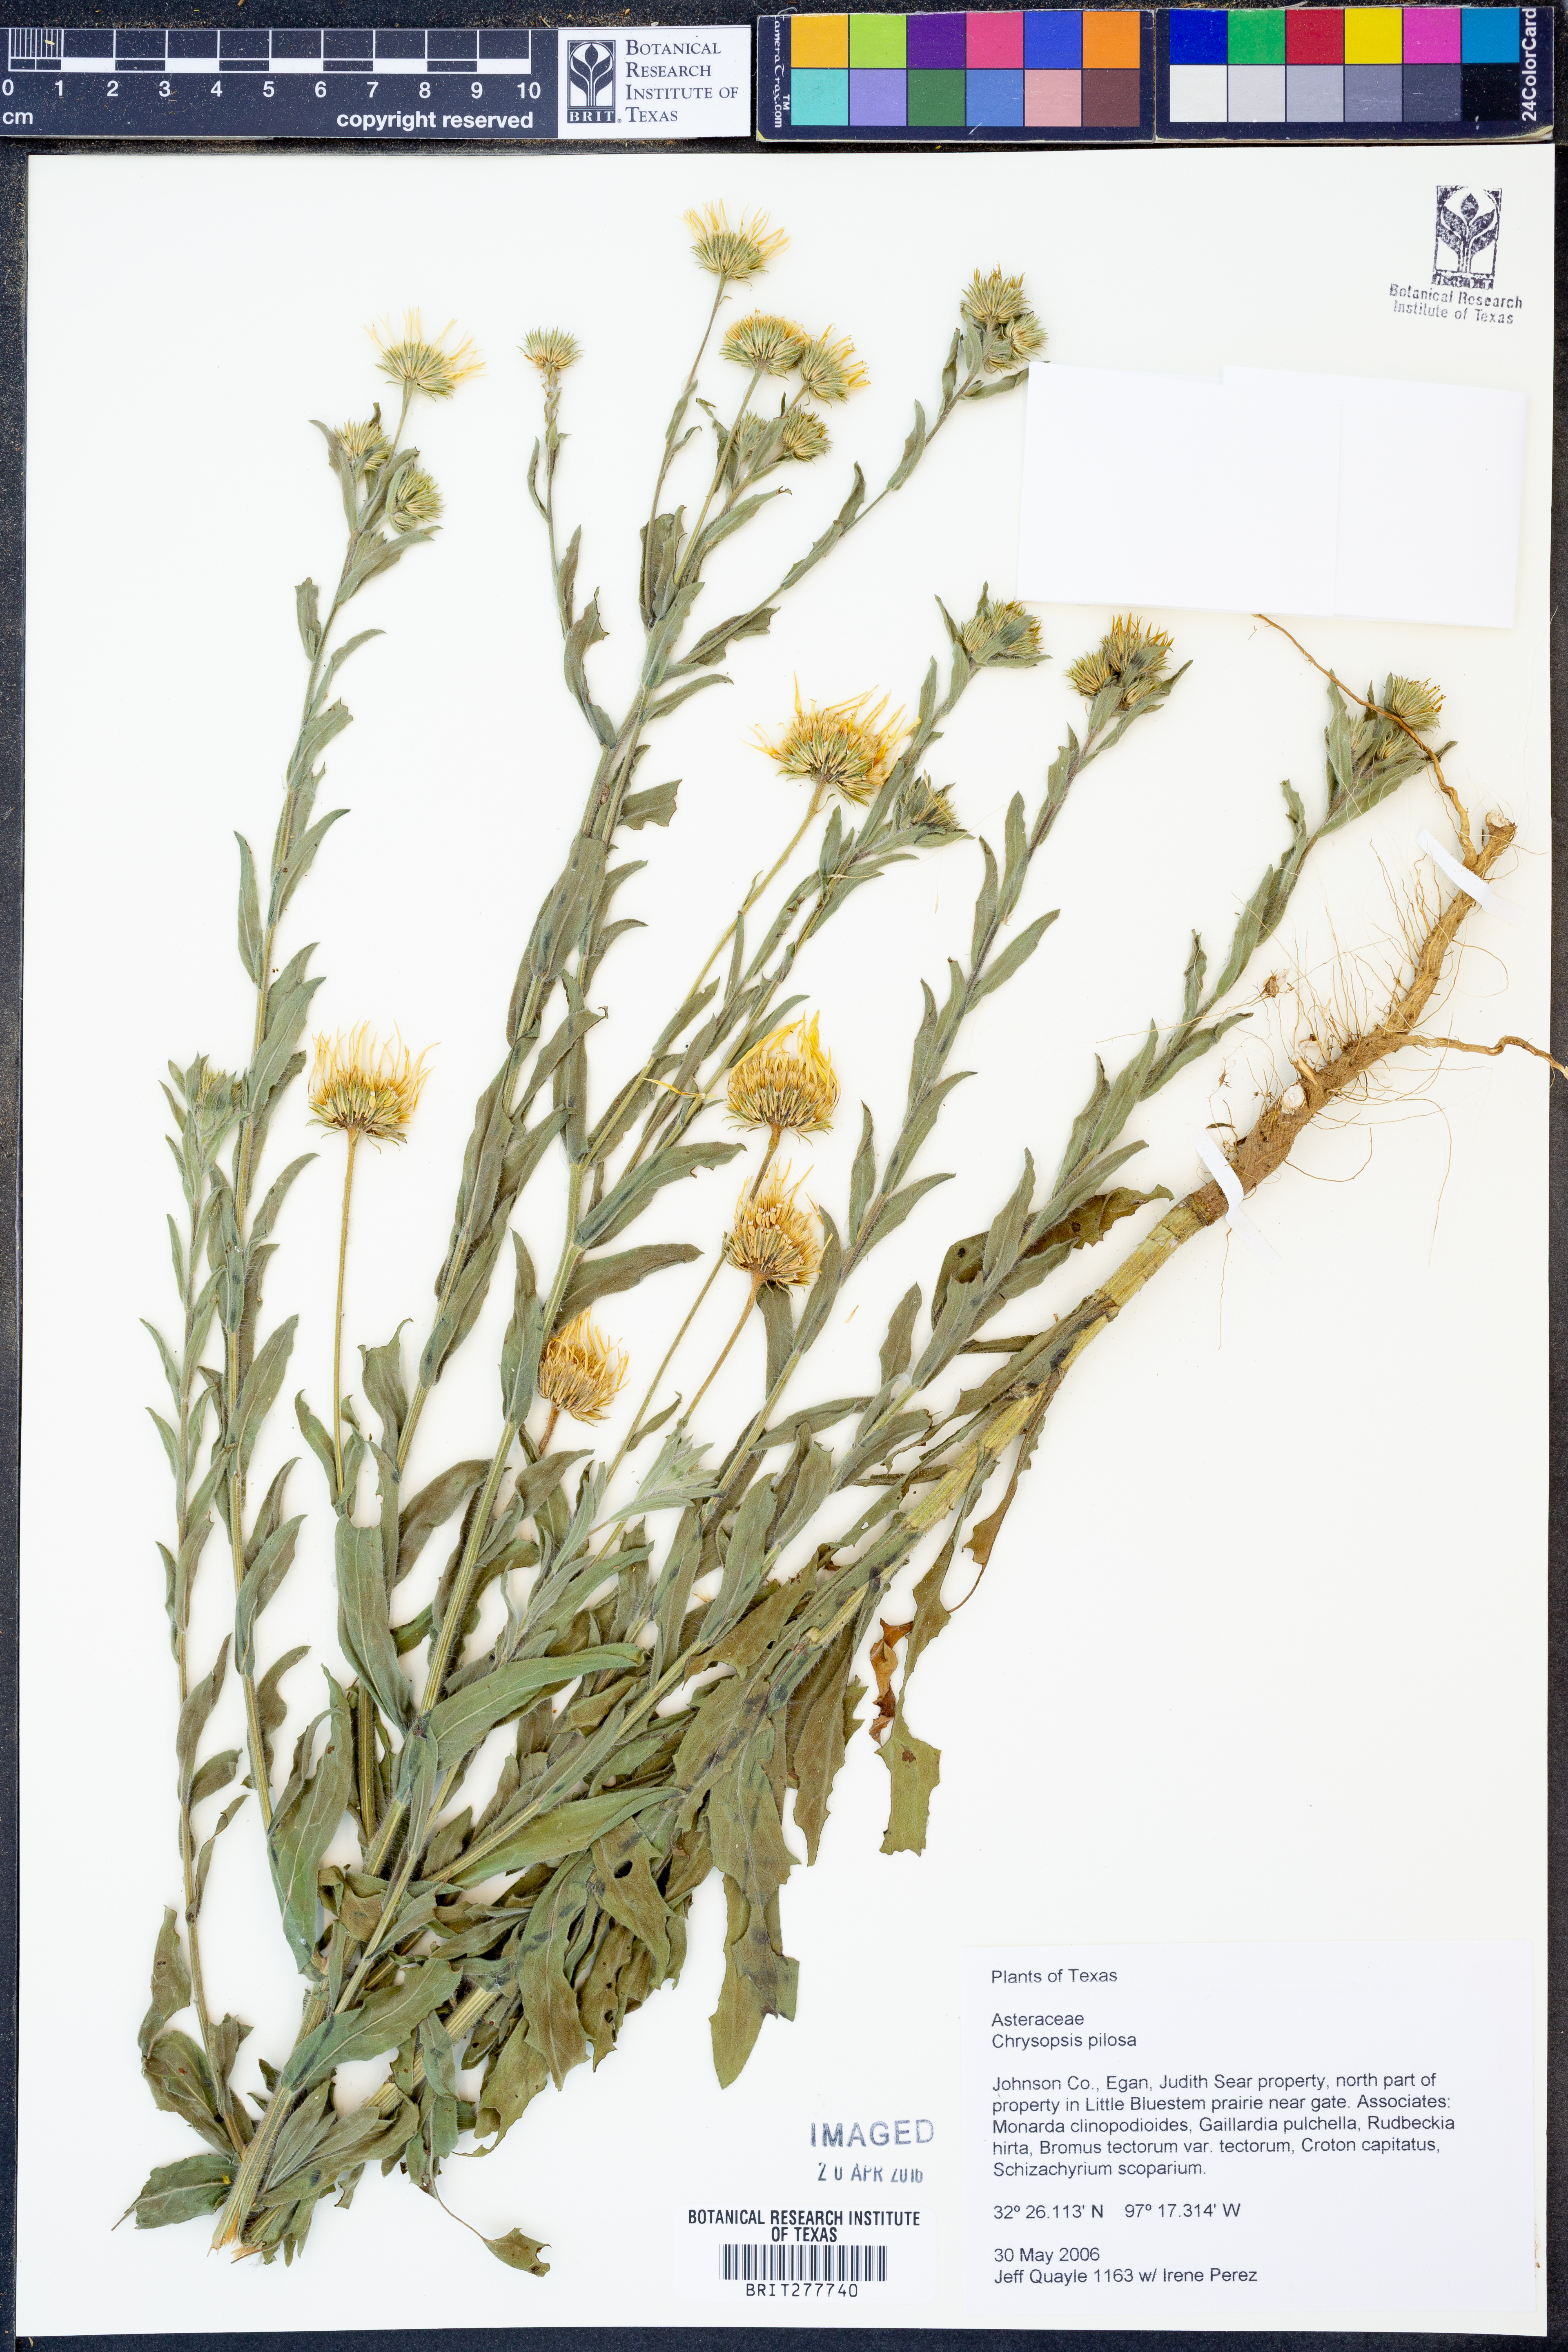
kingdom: Plantae
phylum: Tracheophyta
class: Magnoliopsida
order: Asterales
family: Asteraceae
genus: Bradburia
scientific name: Bradburia pilosa
